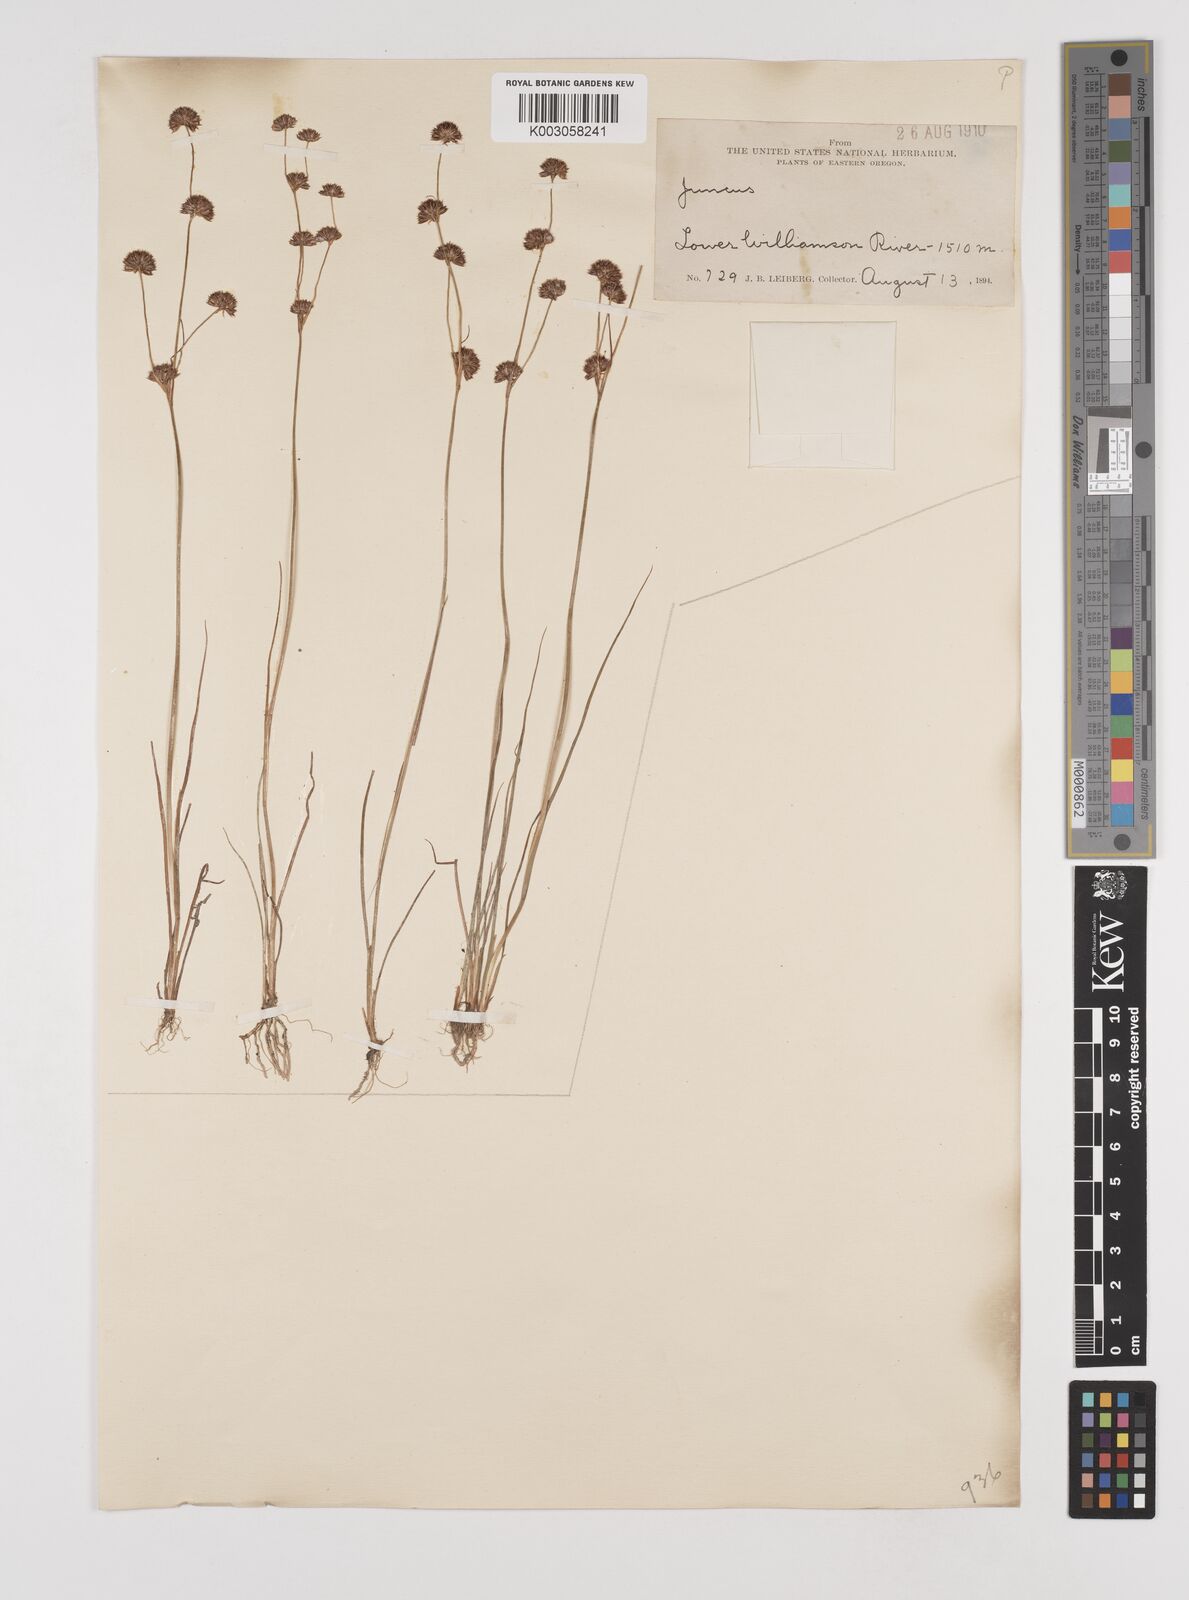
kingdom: Plantae
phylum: Tracheophyta
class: Liliopsida
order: Poales
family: Juncaceae
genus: Juncus
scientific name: Juncus
